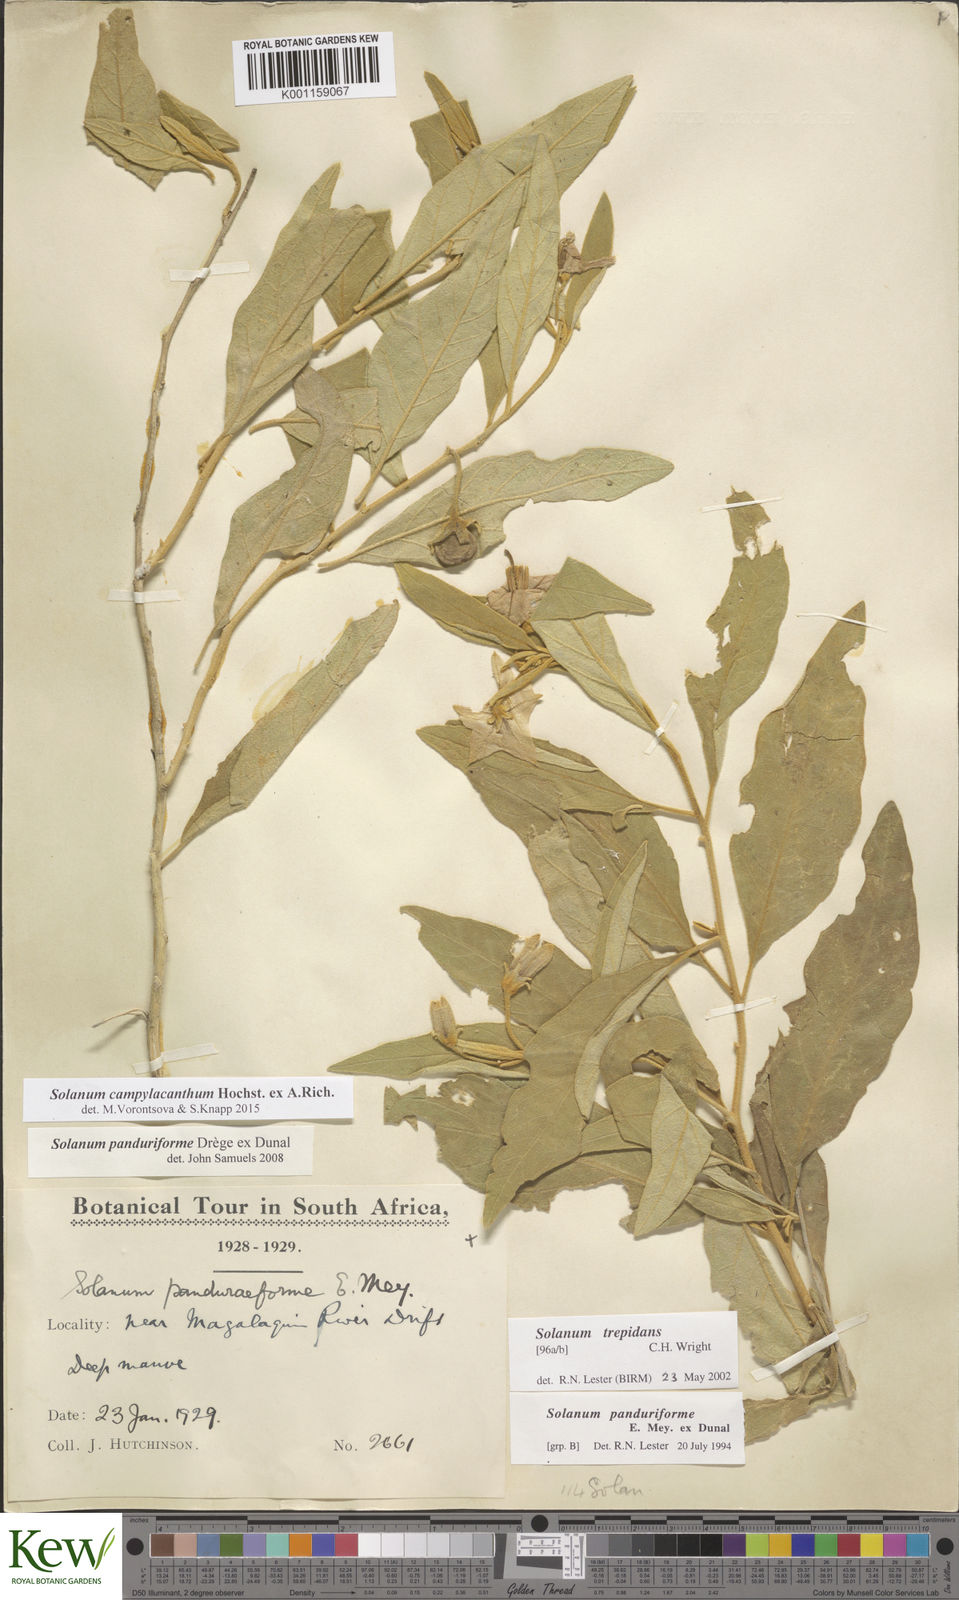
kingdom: Plantae
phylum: Tracheophyta
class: Magnoliopsida
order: Solanales
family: Solanaceae
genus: Solanum
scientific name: Solanum campylacanthum
